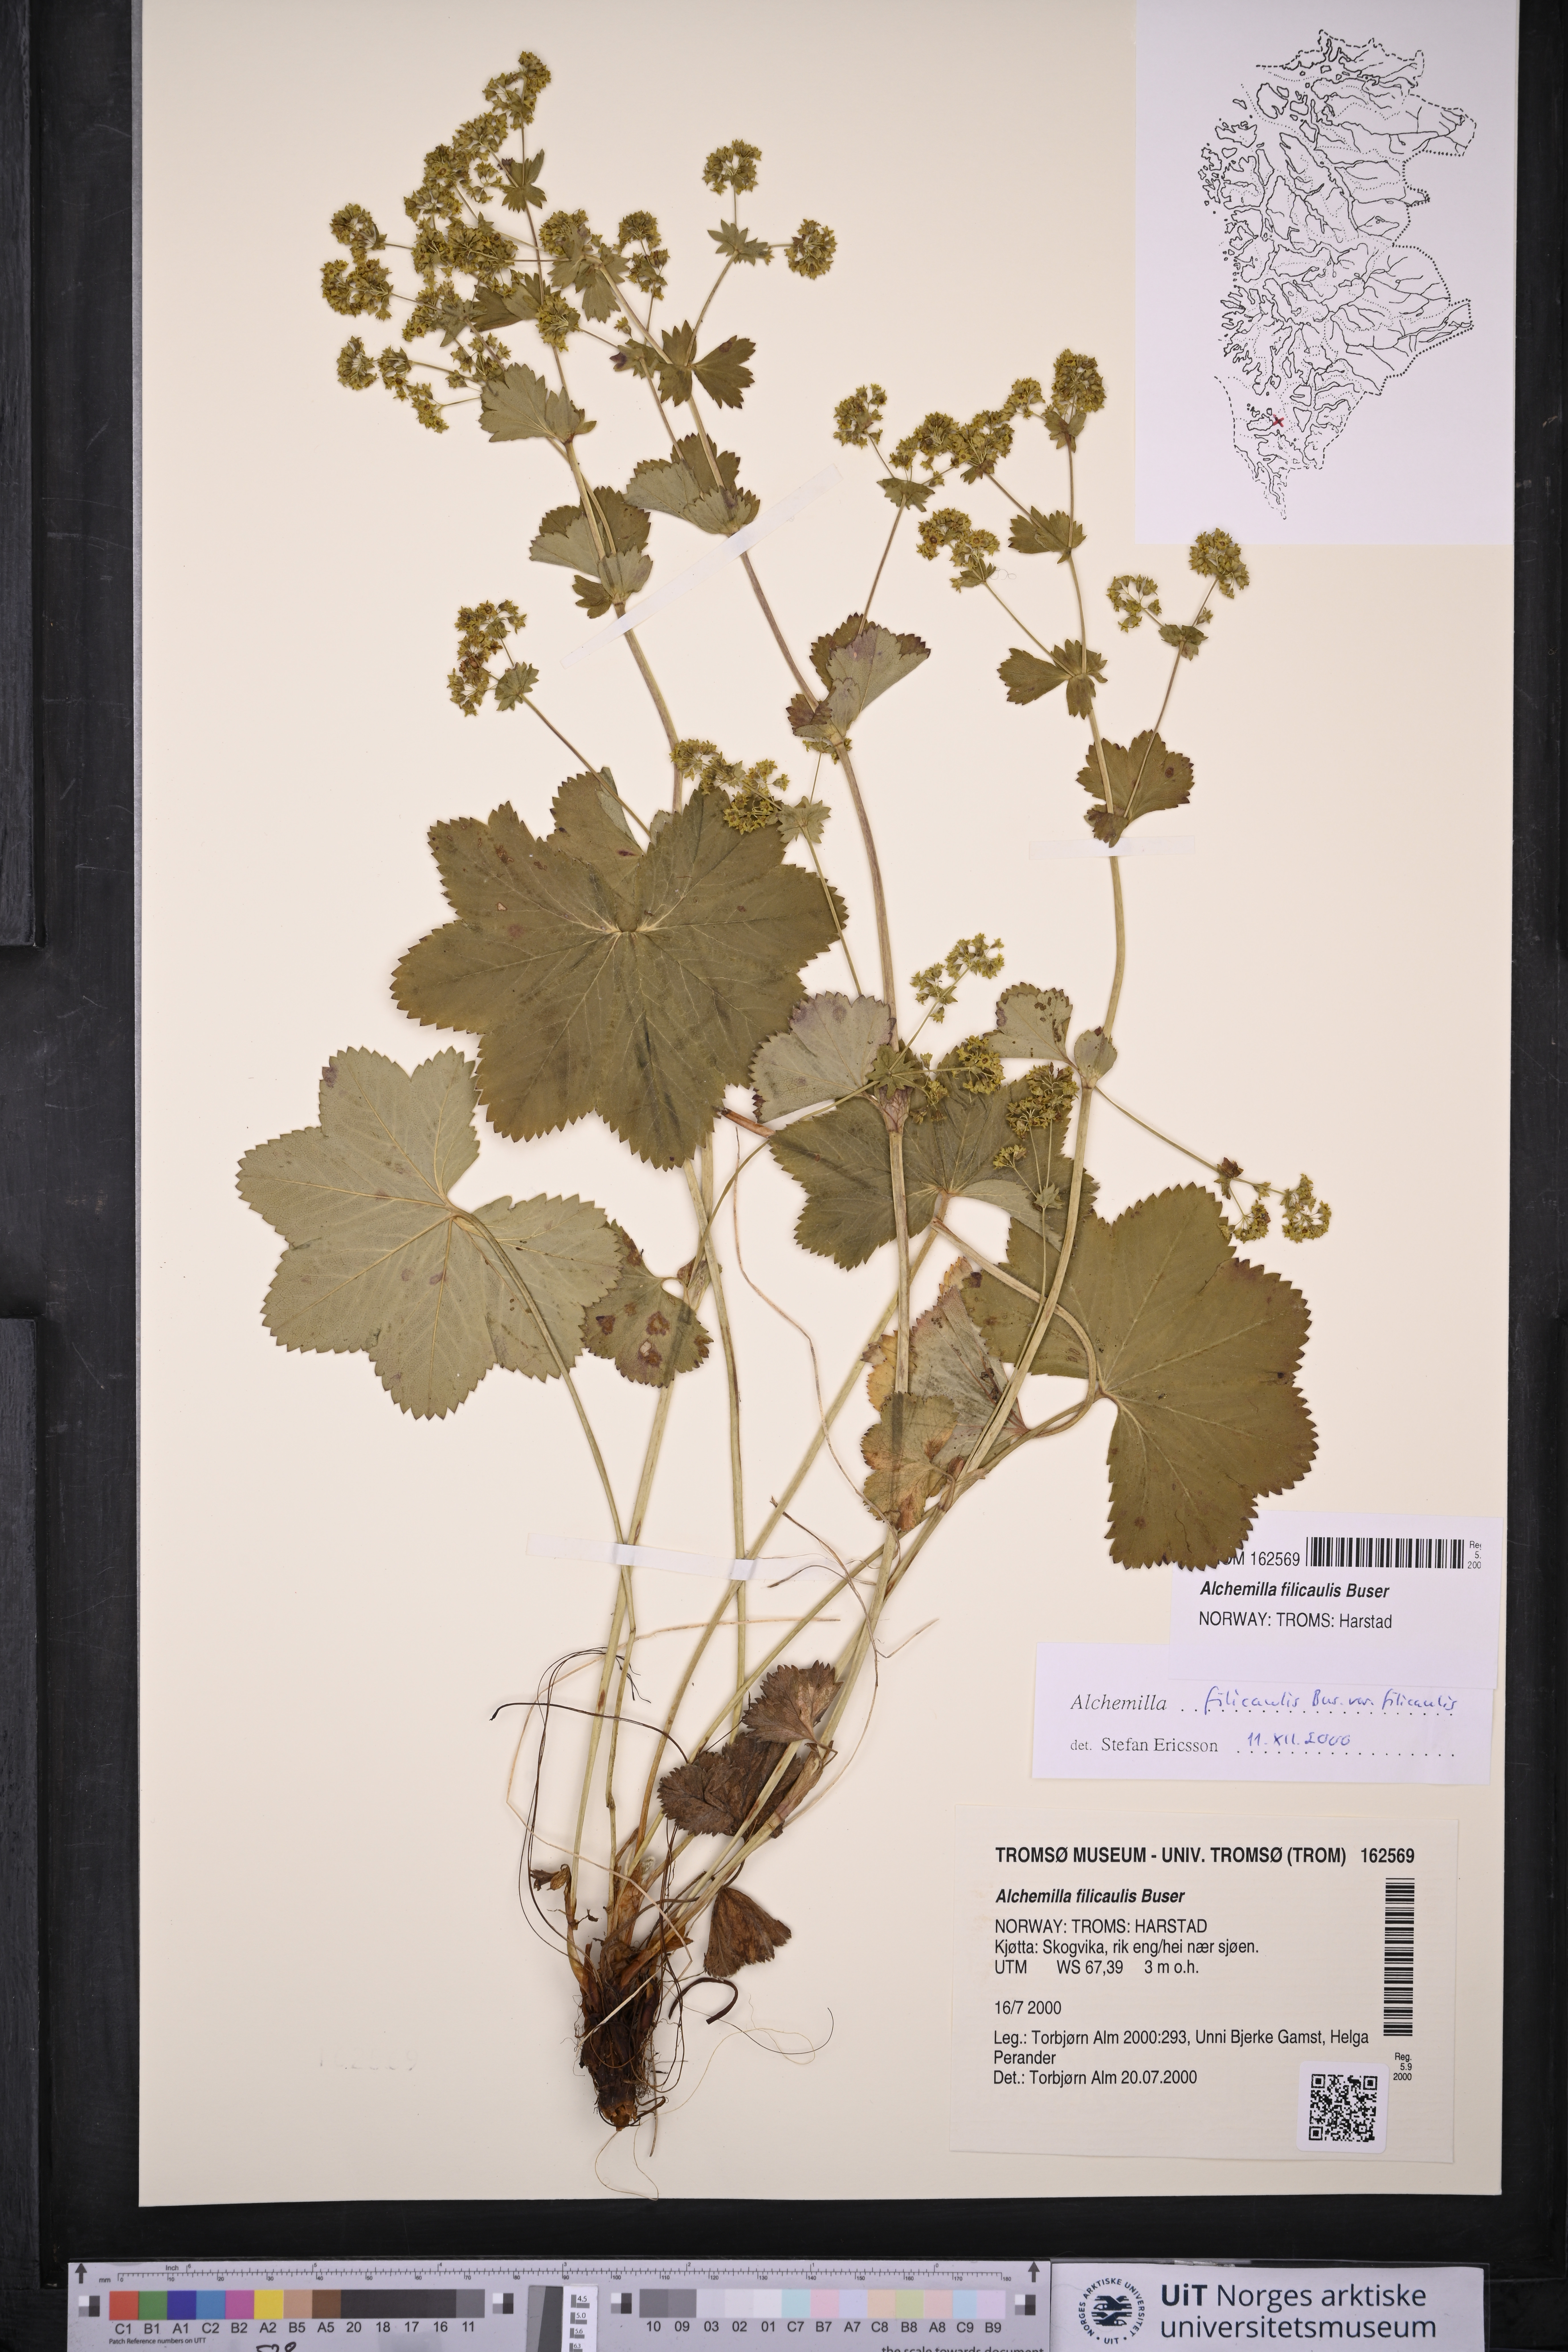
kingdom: Plantae
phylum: Tracheophyta
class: Magnoliopsida
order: Rosales
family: Rosaceae
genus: Alchemilla
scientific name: Alchemilla filicaulis
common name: Hairy lady's-mantle
